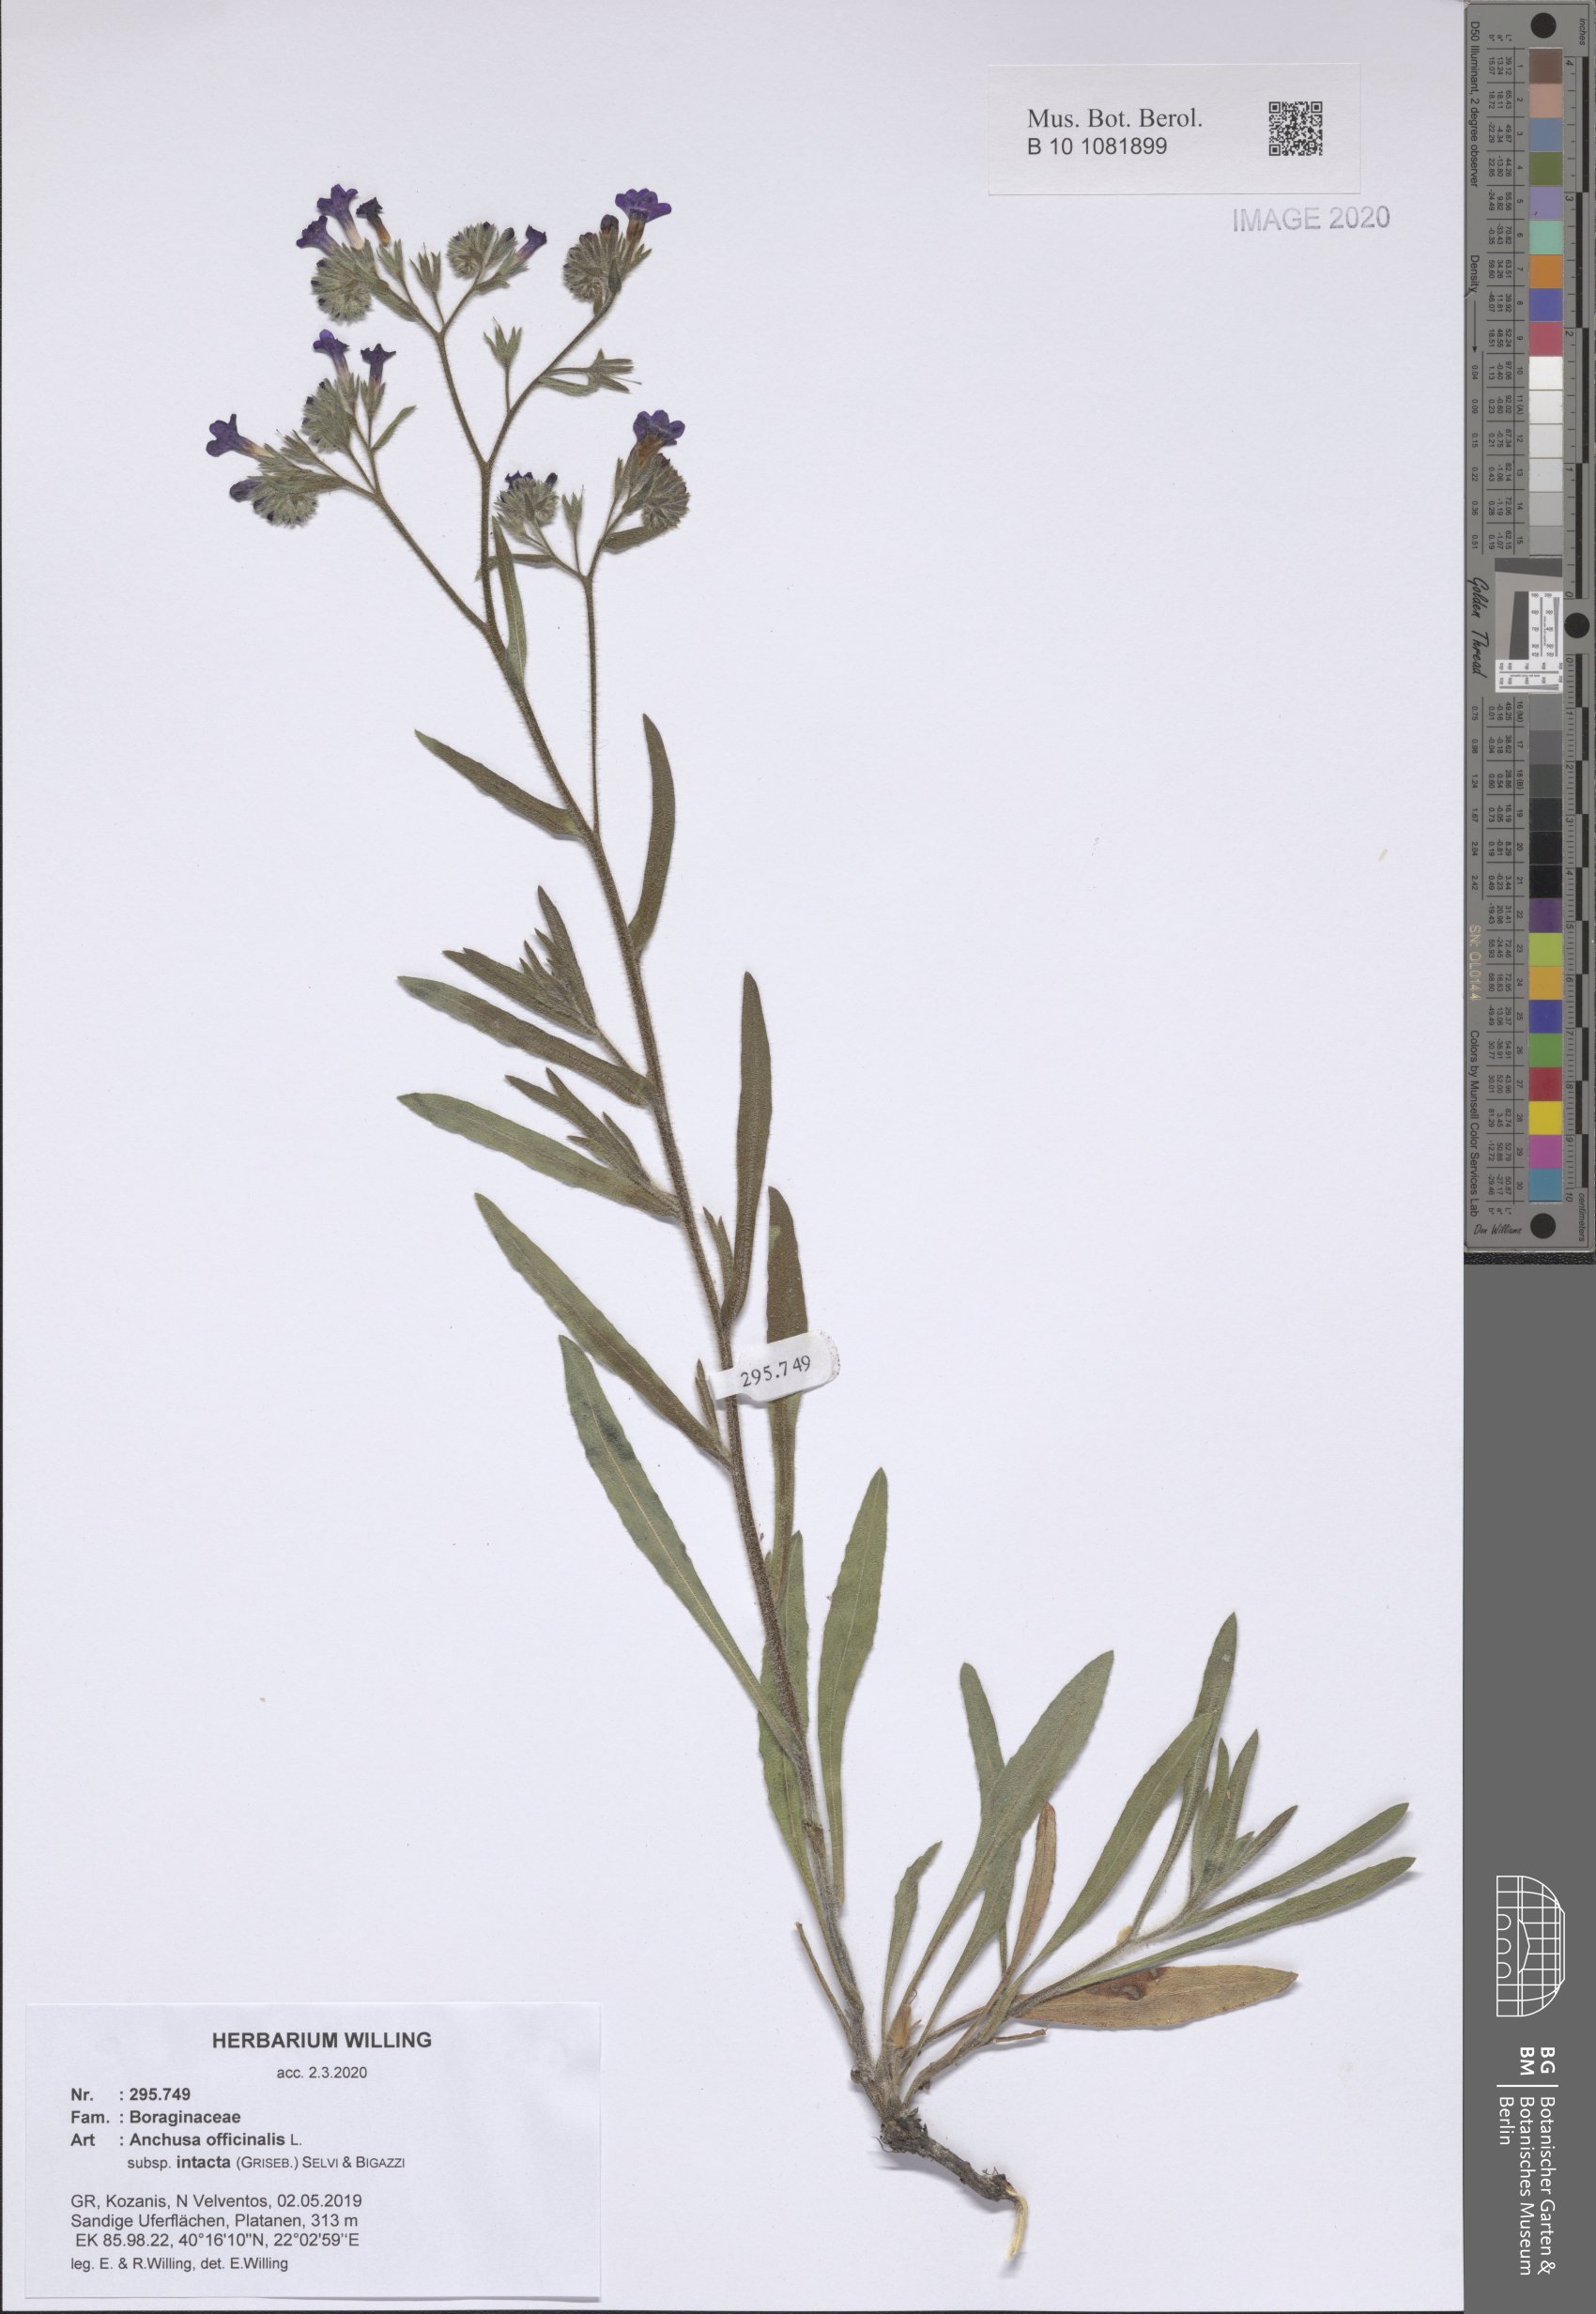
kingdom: Plantae
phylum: Tracheophyta
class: Magnoliopsida
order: Boraginales
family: Boraginaceae
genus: Anchusa
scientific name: Anchusa officinalis
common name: Alkanet
